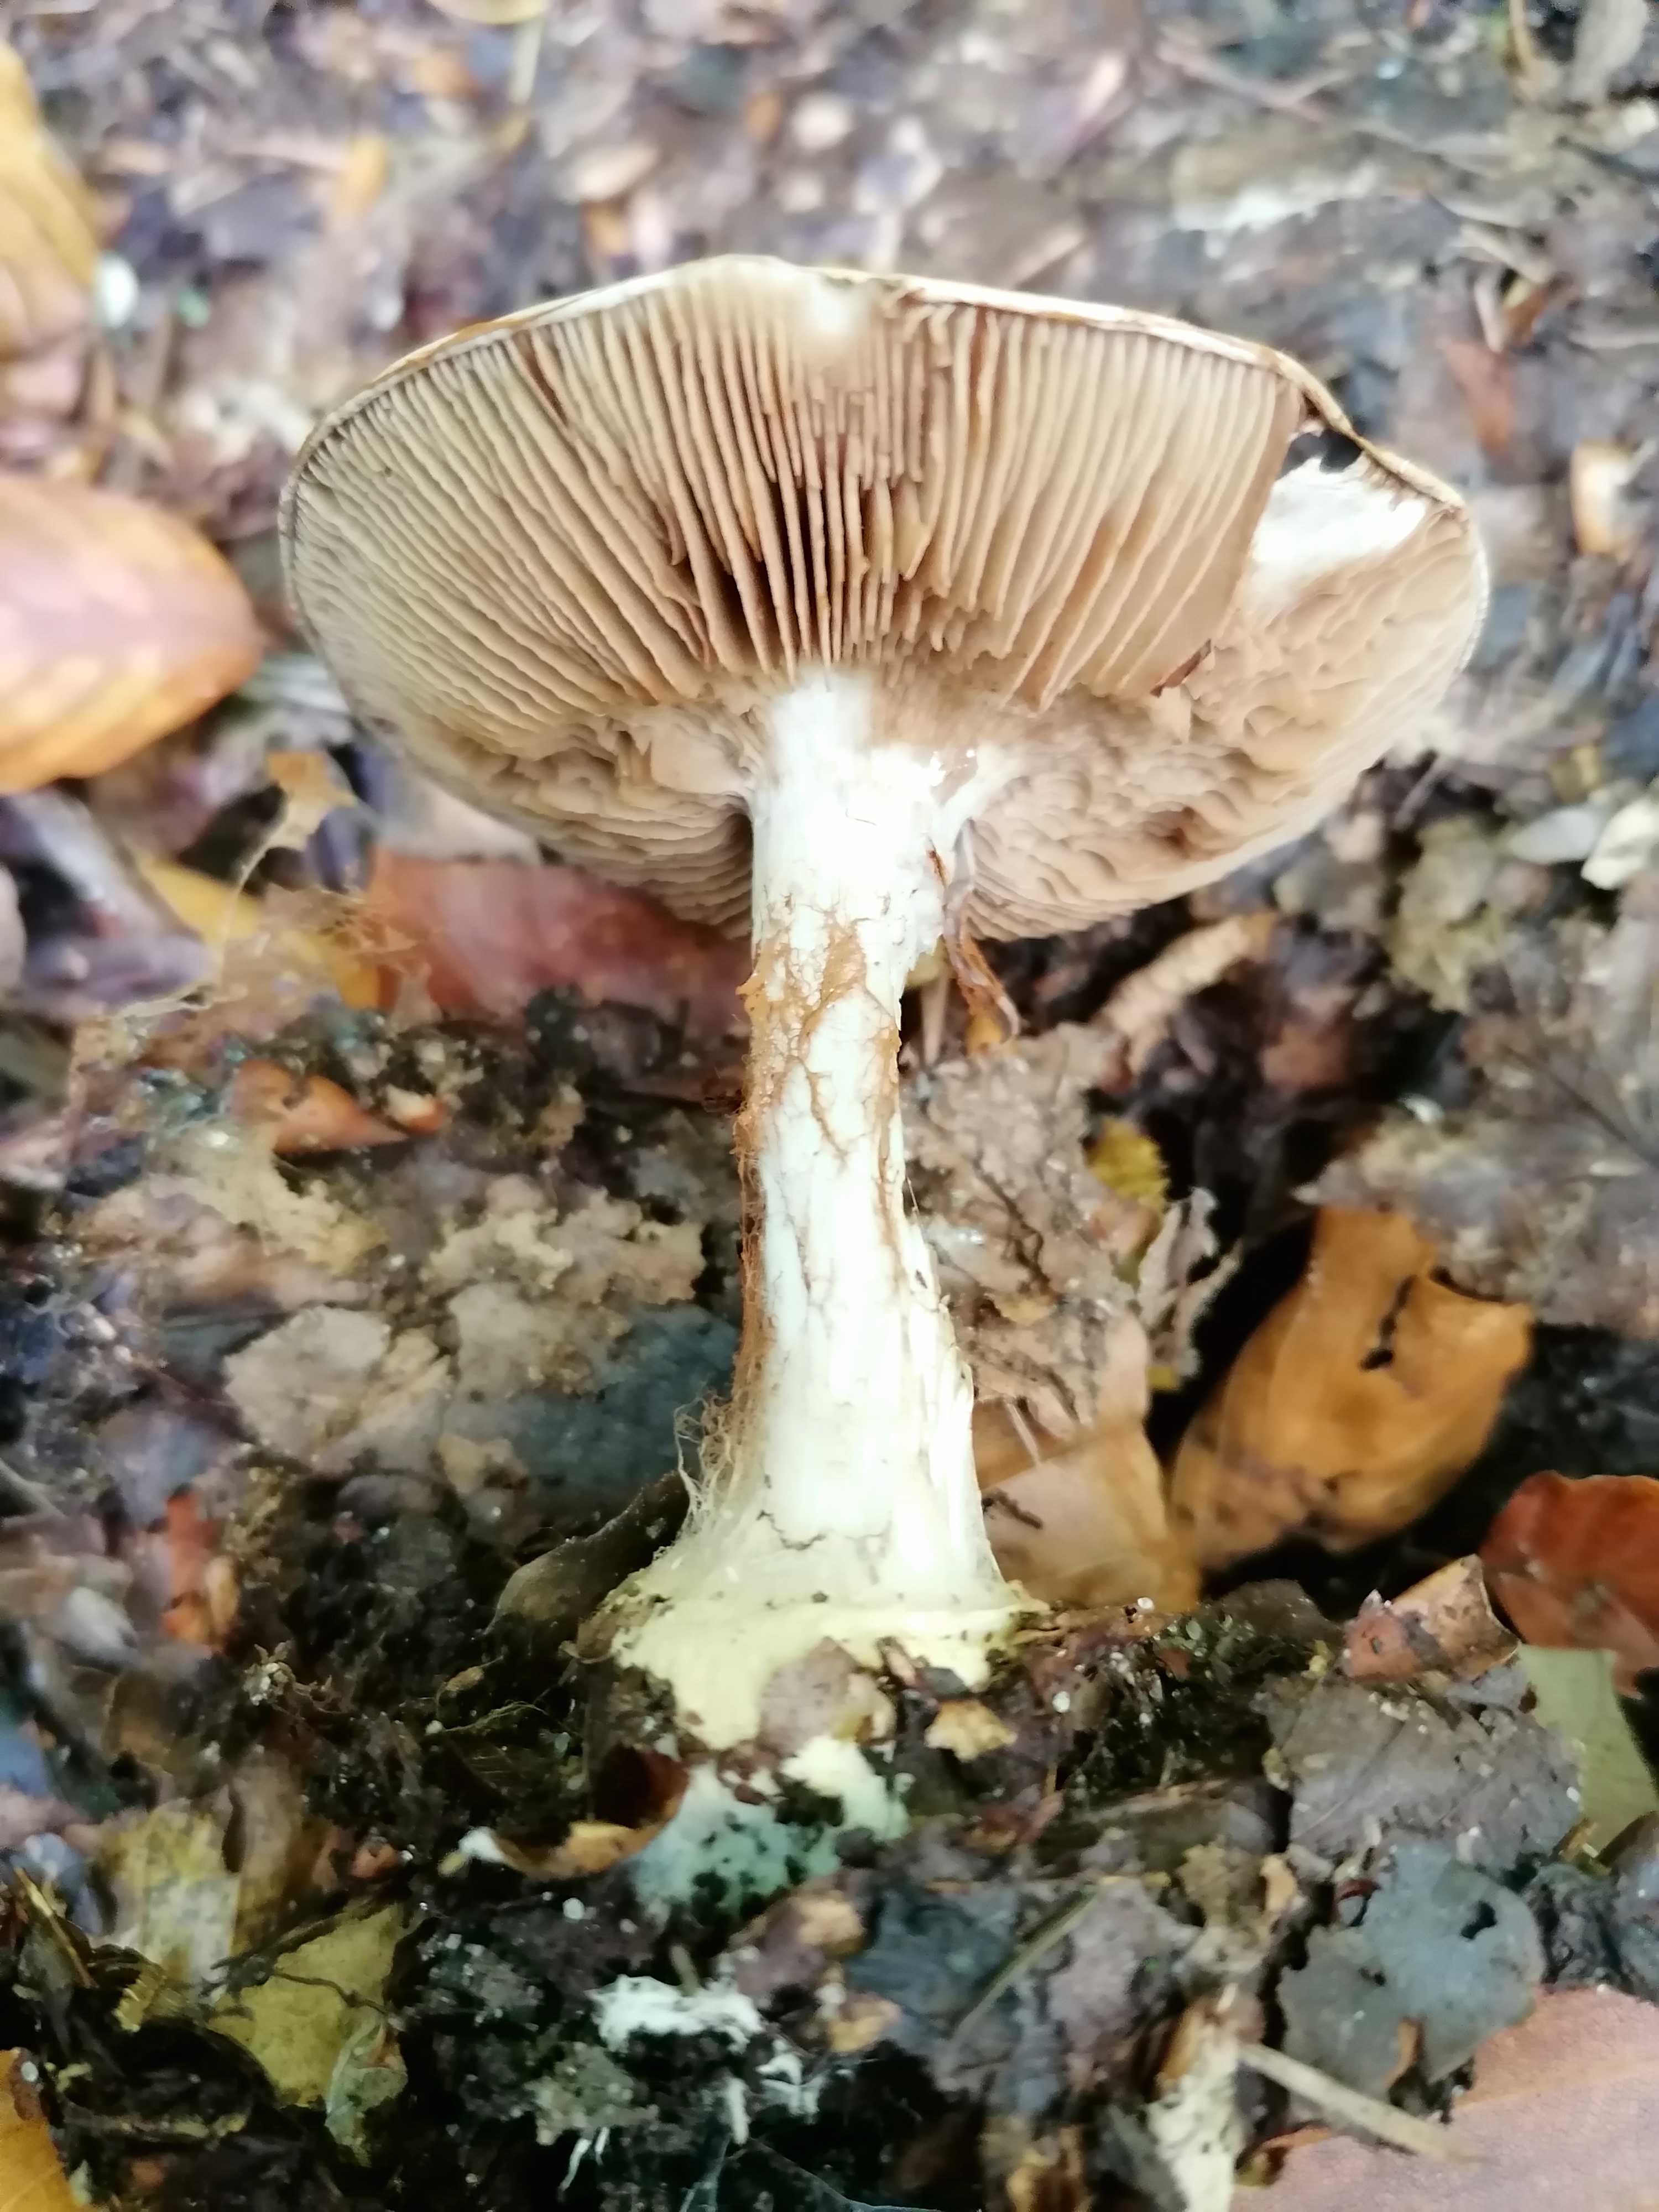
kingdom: Fungi
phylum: Basidiomycota
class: Agaricomycetes
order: Agaricales
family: Cortinariaceae
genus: Cortinarius
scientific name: Cortinarius
